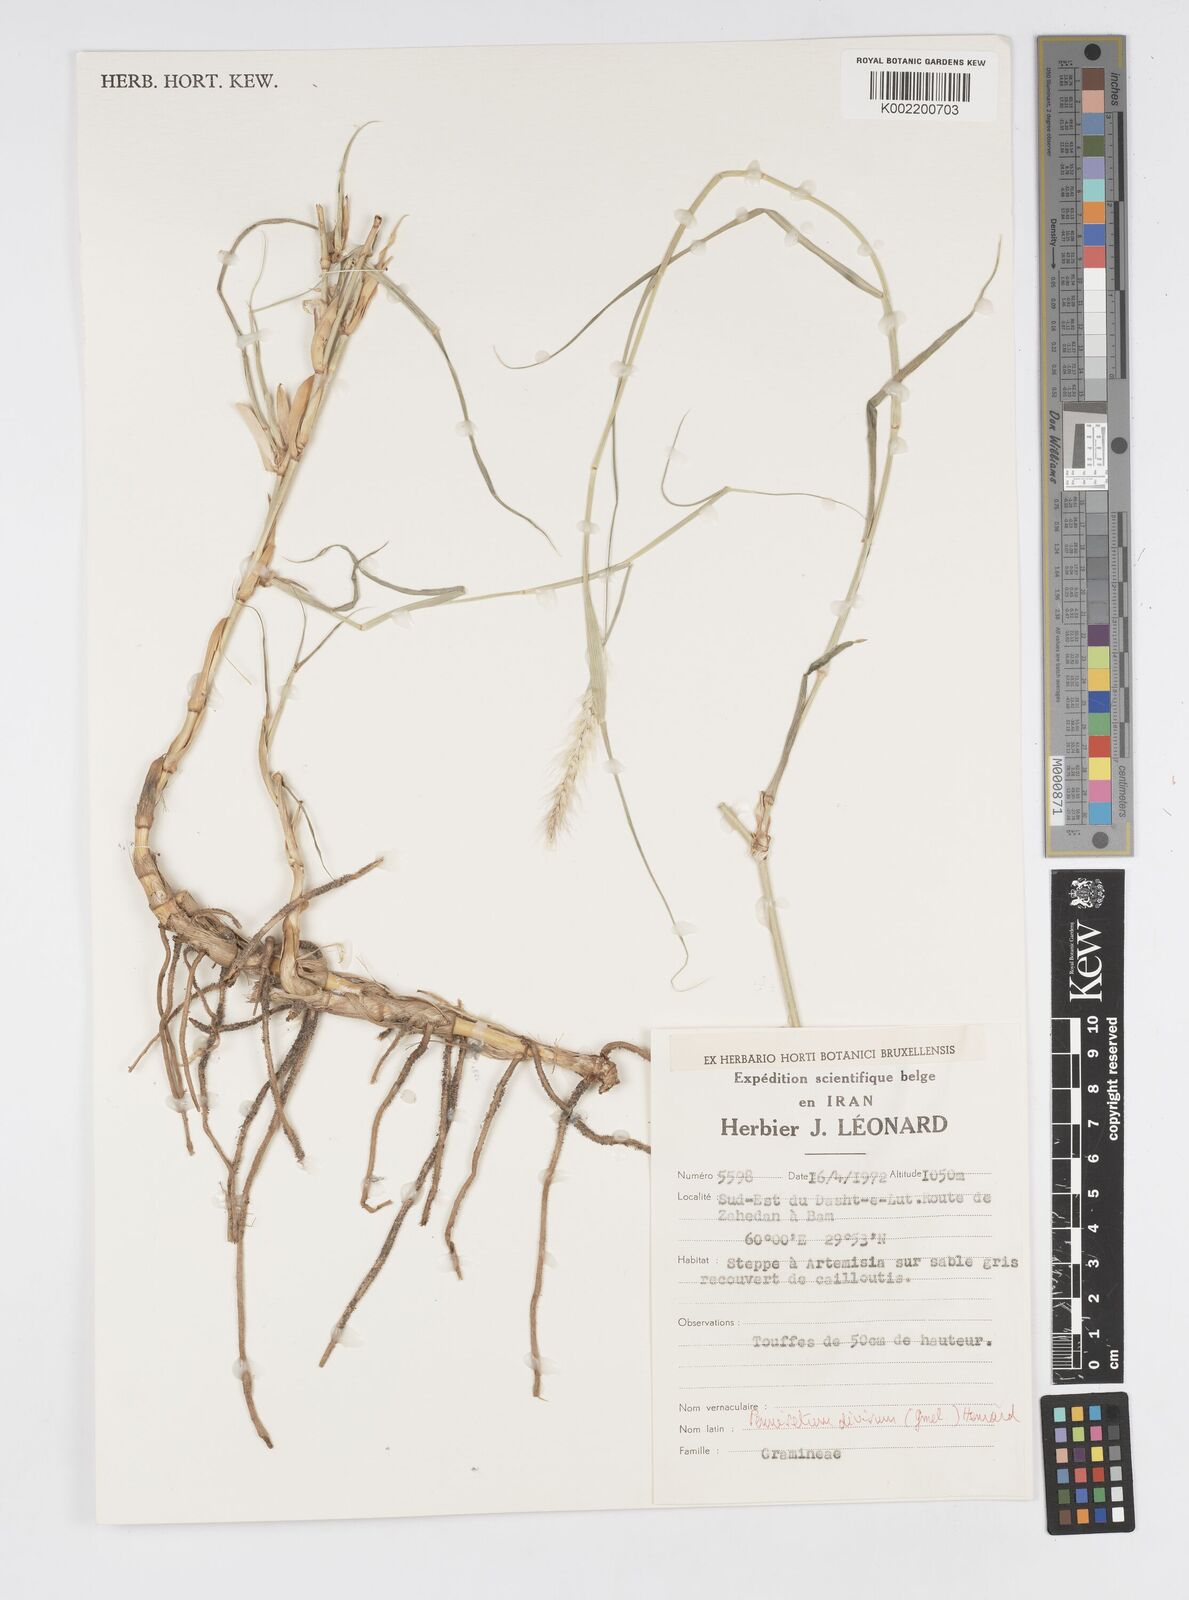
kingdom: Plantae
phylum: Tracheophyta
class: Liliopsida
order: Poales
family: Poaceae
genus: Cenchrus
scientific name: Cenchrus divisus
